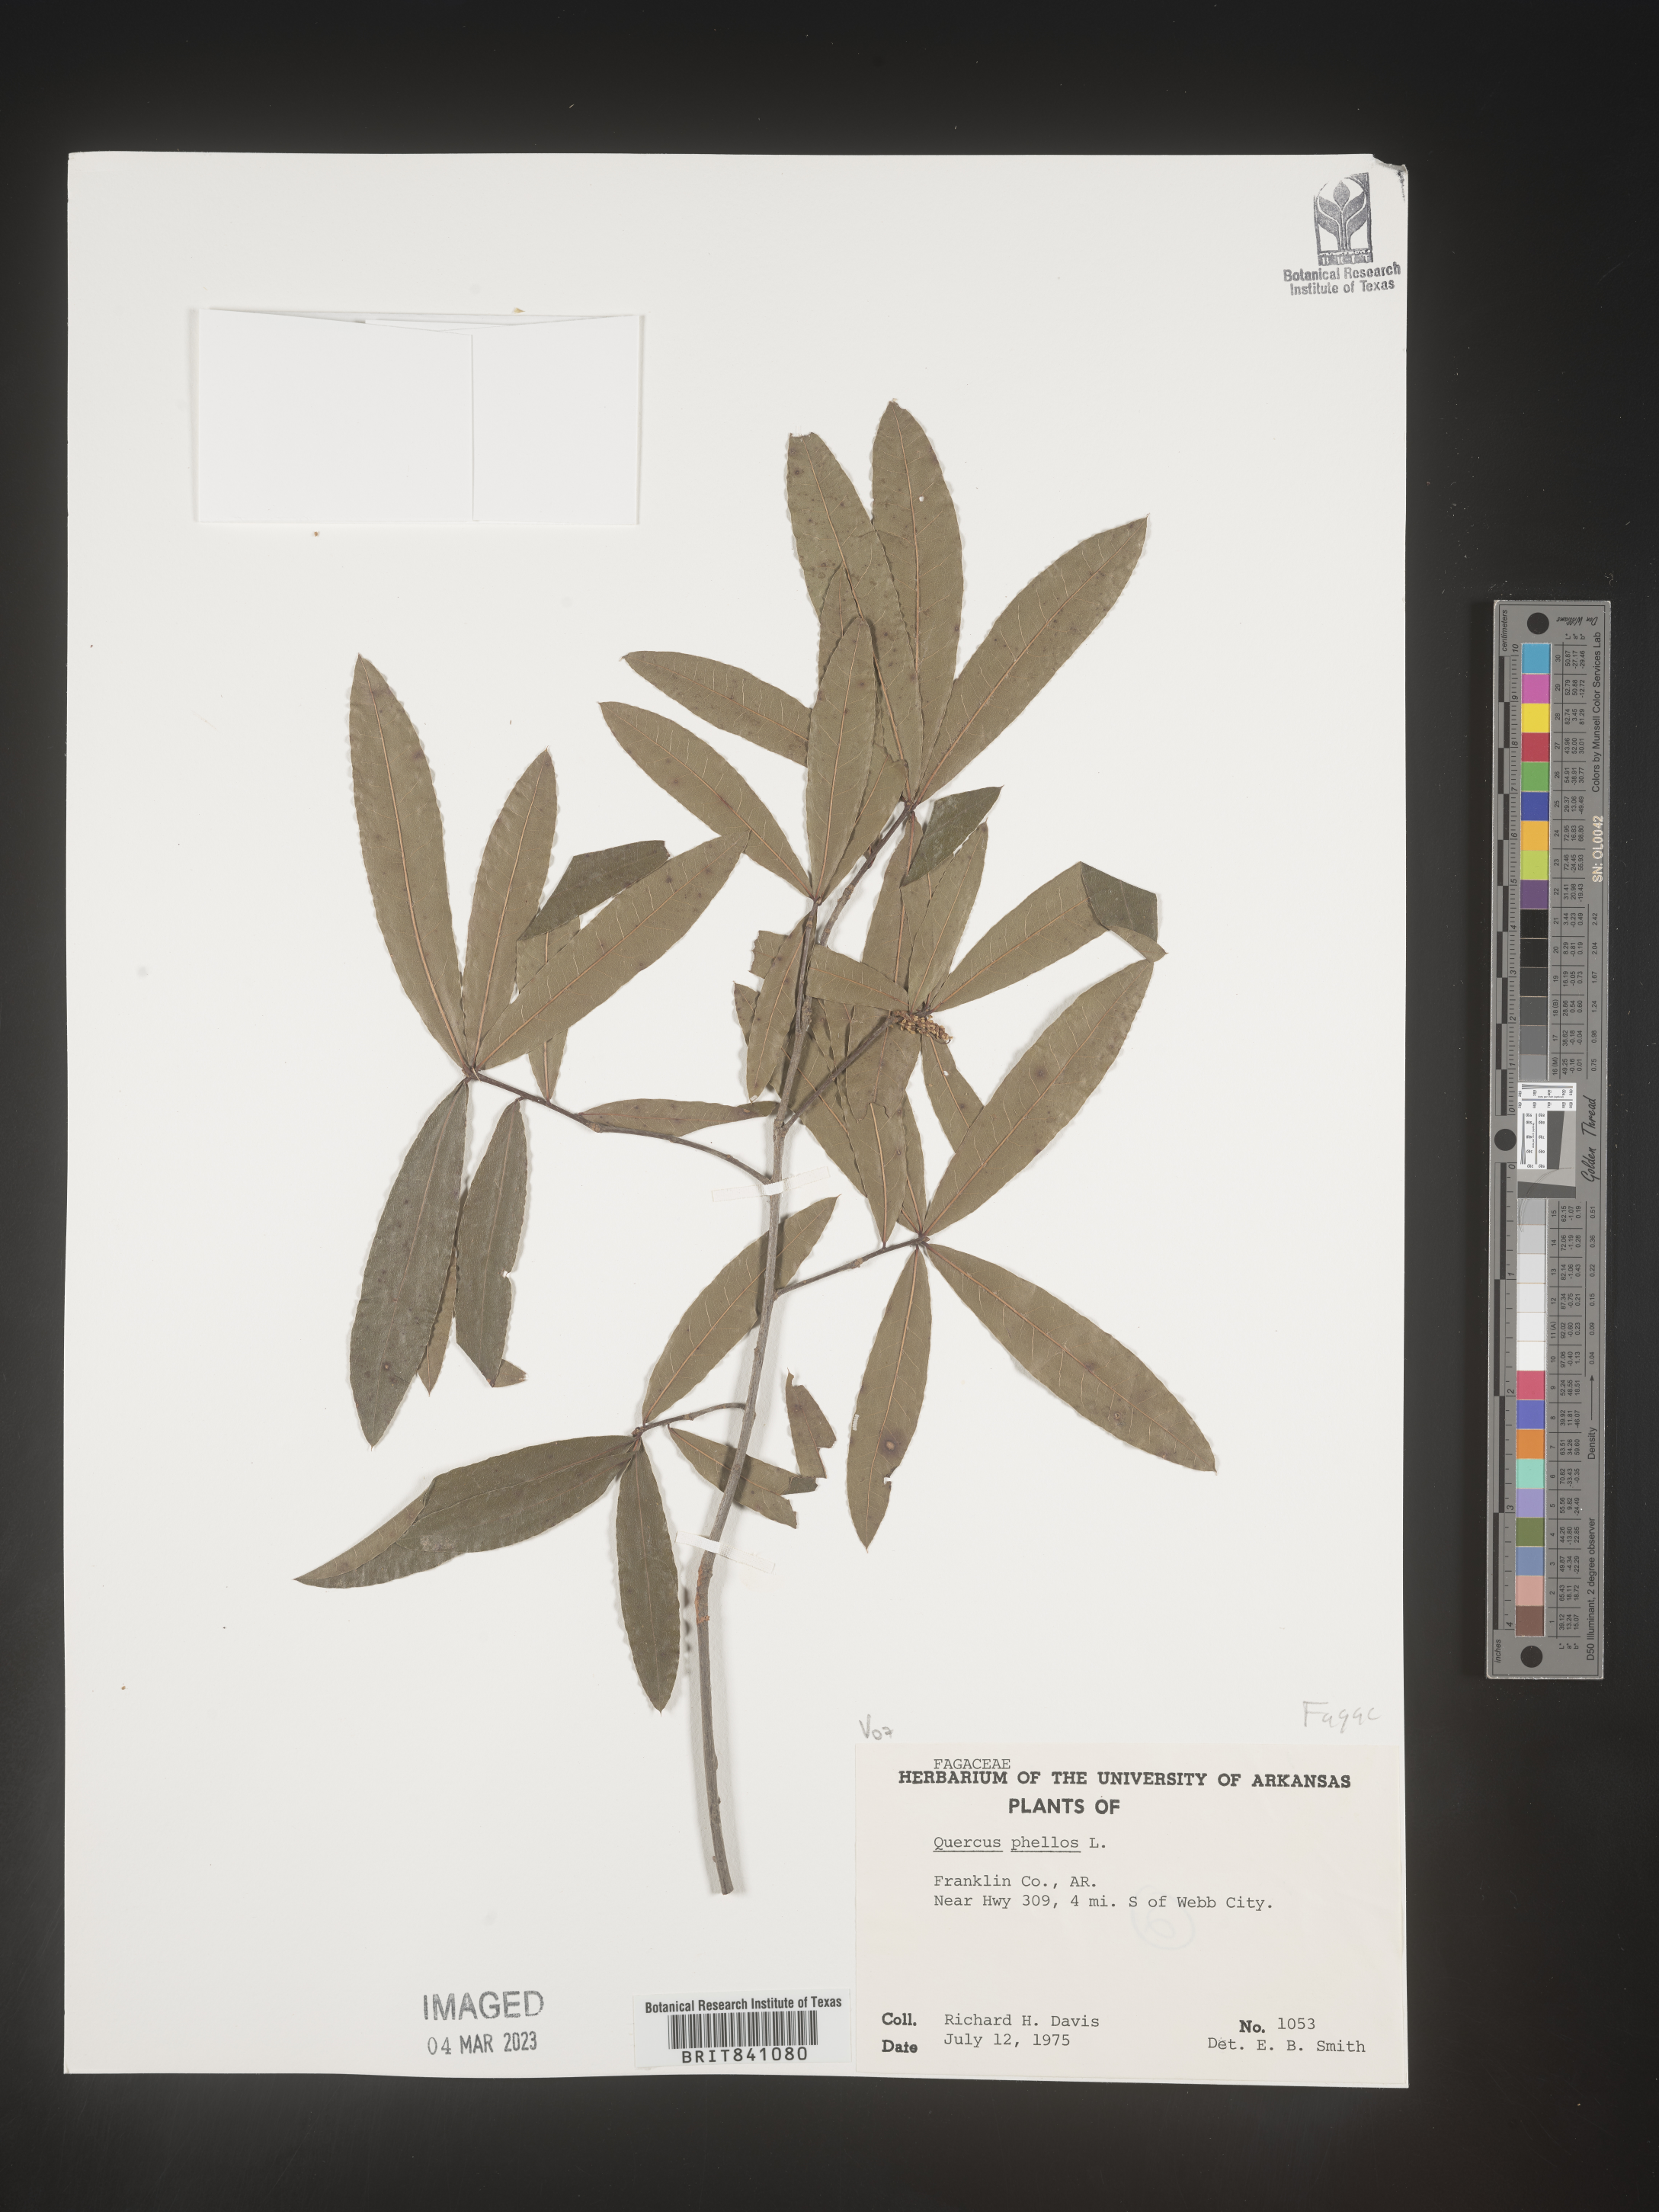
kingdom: Plantae
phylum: Tracheophyta
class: Magnoliopsida
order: Fagales
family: Fagaceae
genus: Quercus
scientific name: Quercus phellos
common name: Willow oak
